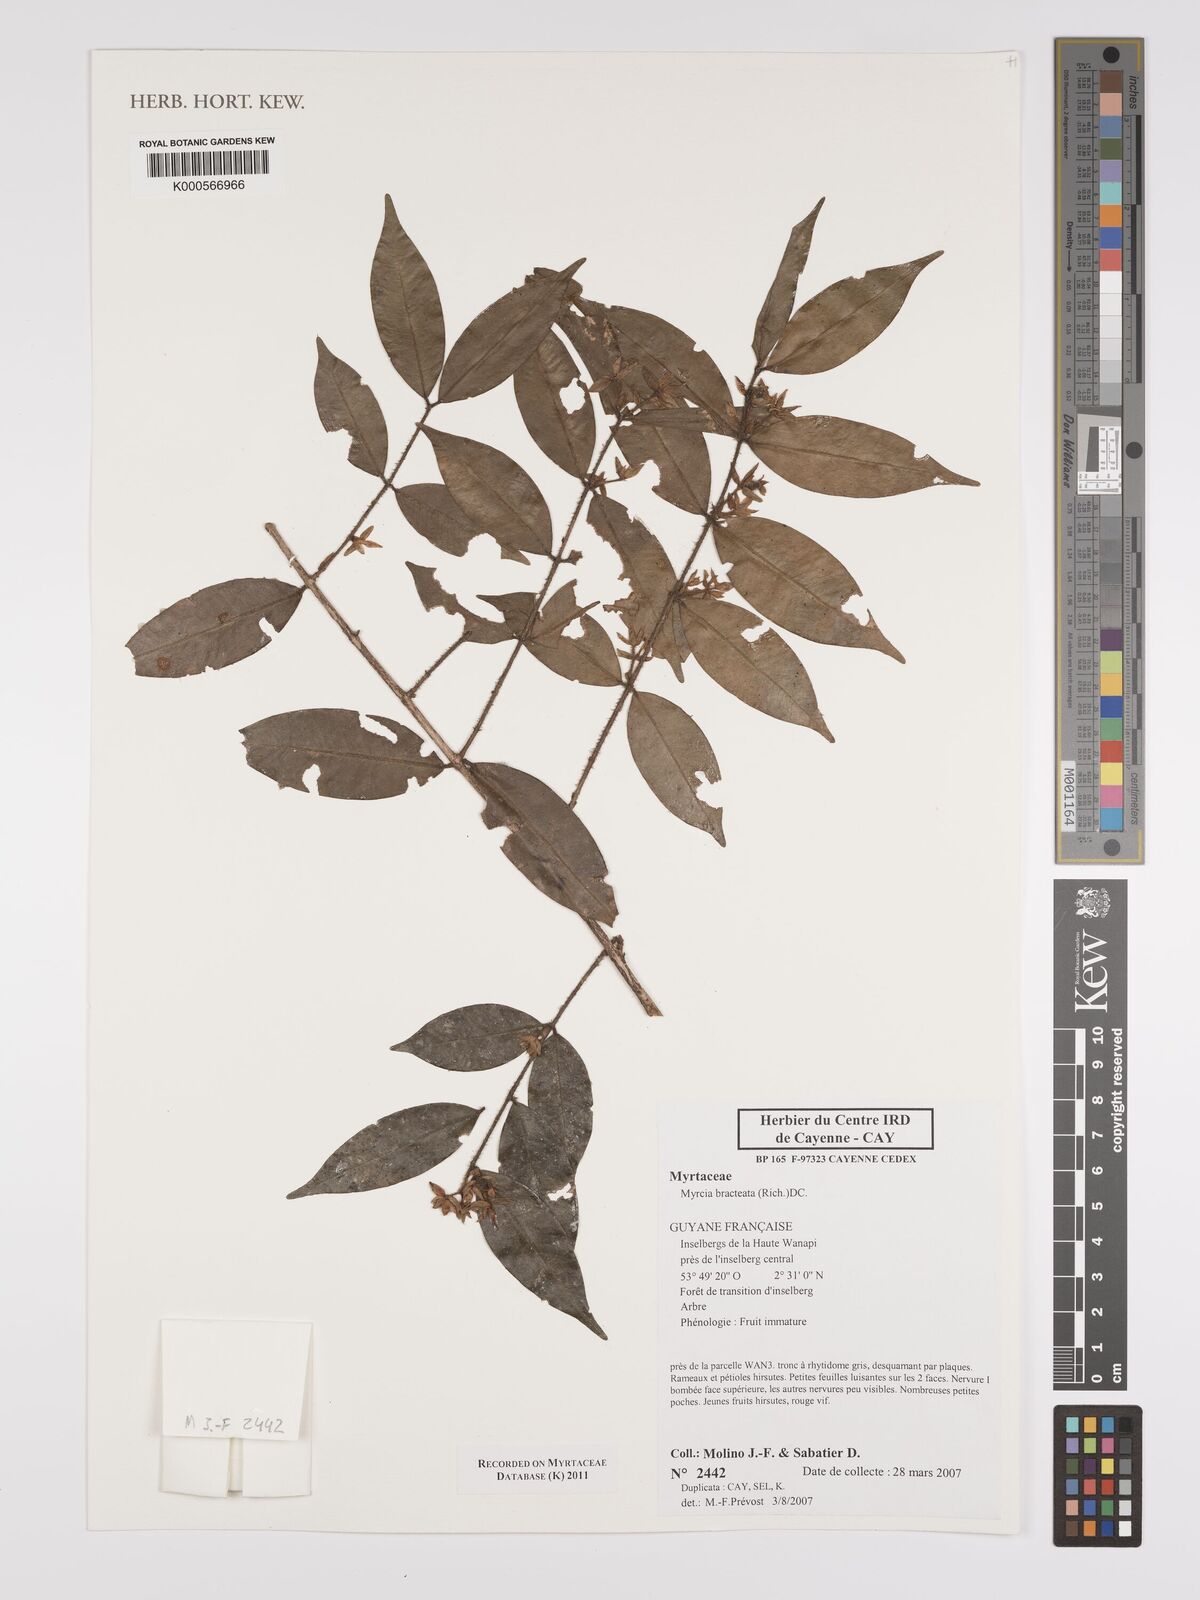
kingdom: Plantae
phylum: Tracheophyta
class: Magnoliopsida
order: Myrtales
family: Myrtaceae
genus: Myrcia
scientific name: Myrcia bracteata
